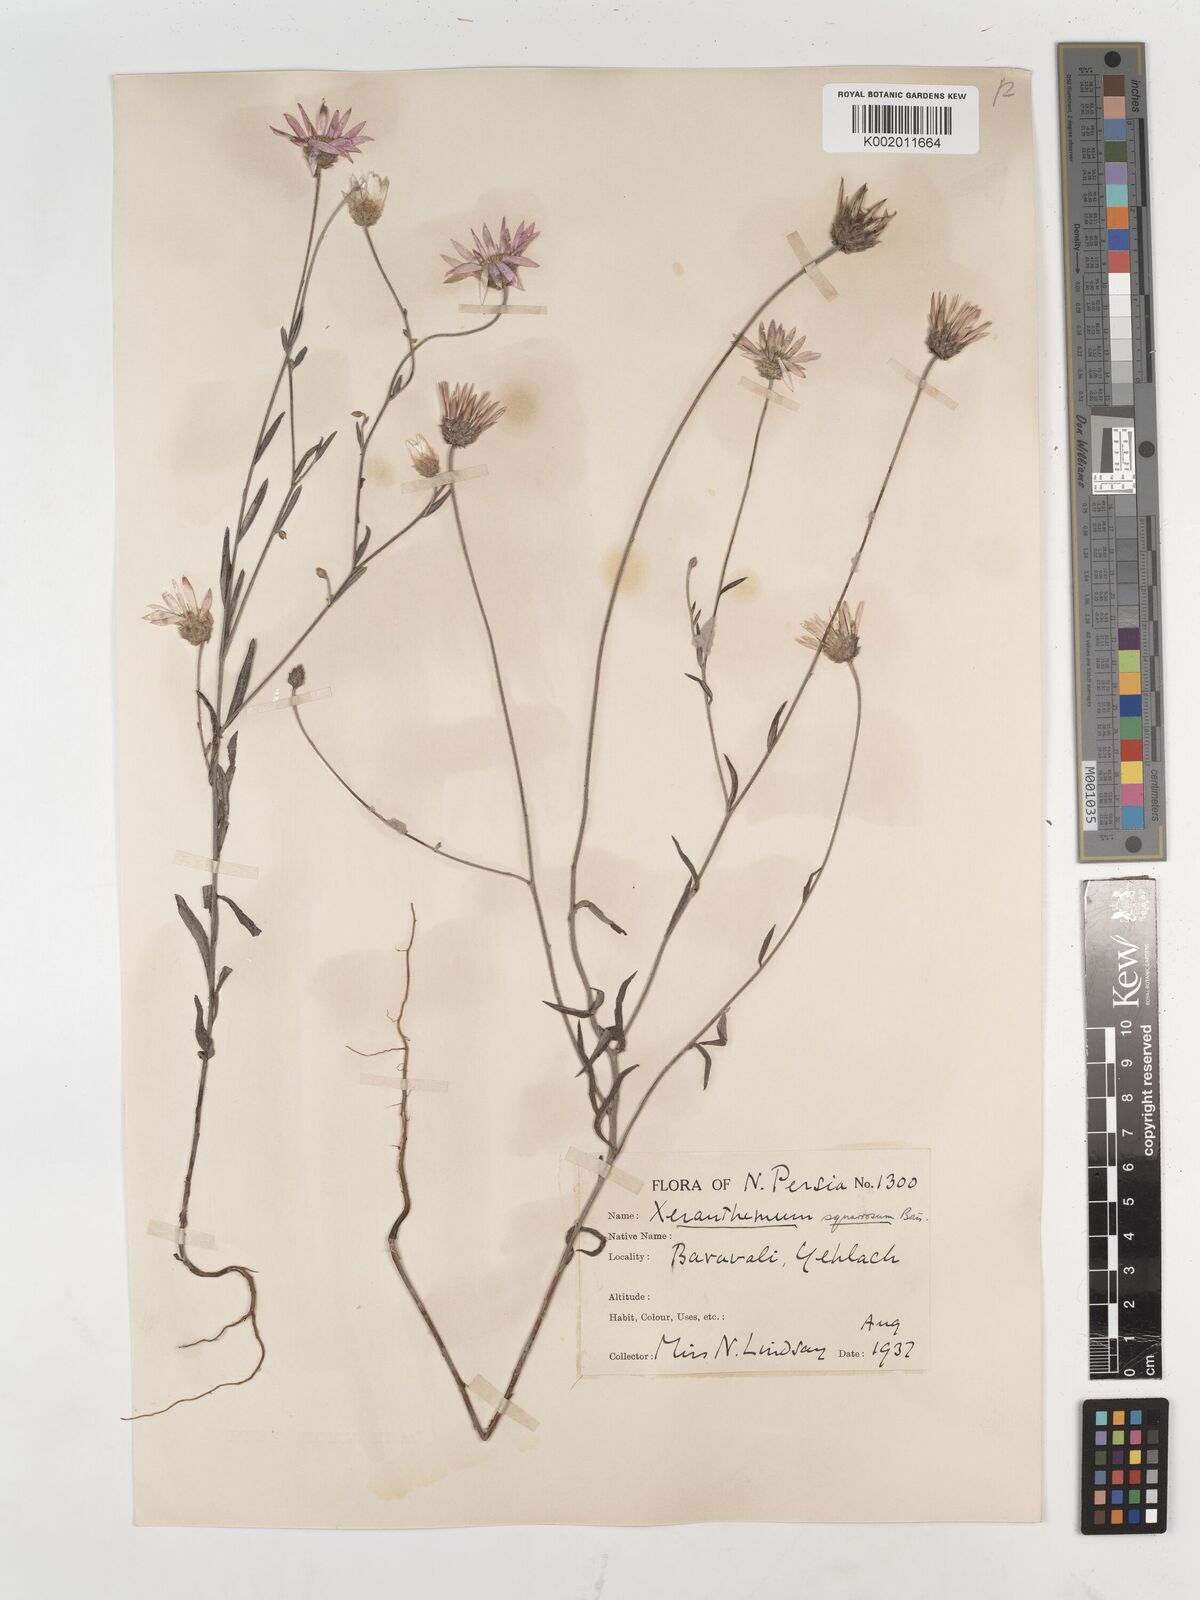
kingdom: Plantae
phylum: Tracheophyta
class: Magnoliopsida
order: Asterales
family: Asteraceae
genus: Xeranthemum
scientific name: Xeranthemum squarrosum
